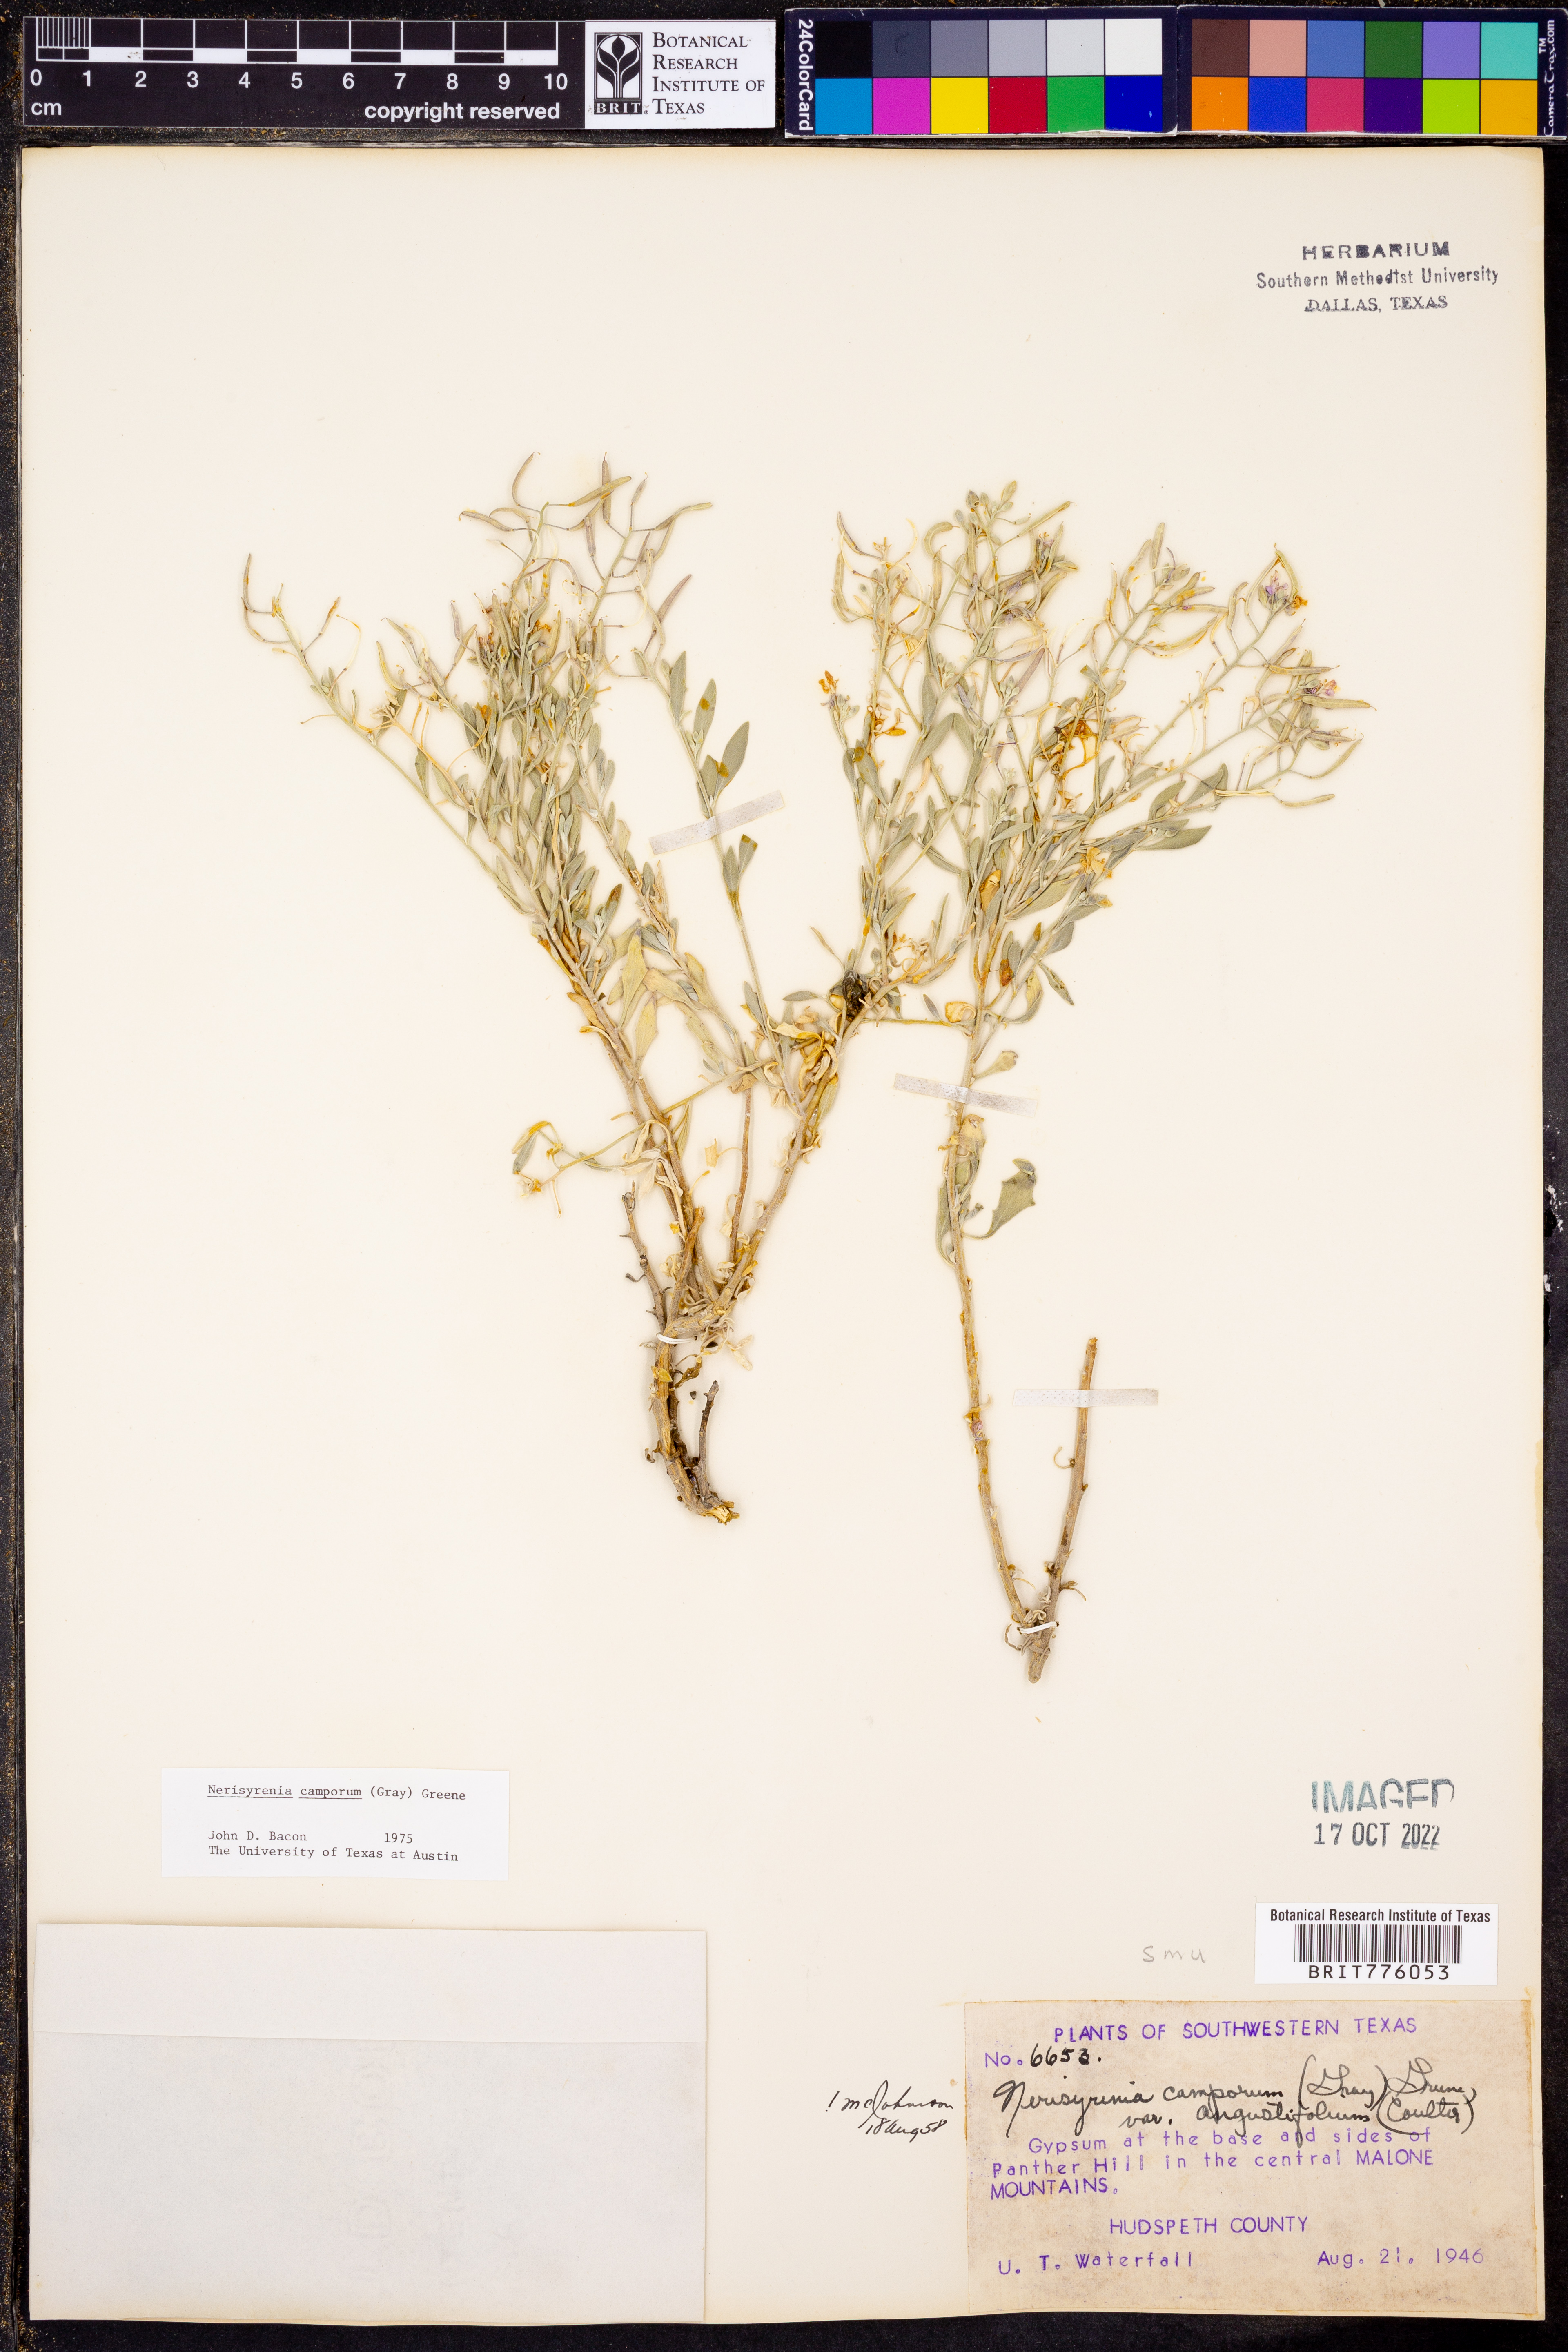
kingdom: Plantae
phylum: Tracheophyta
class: Magnoliopsida
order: Brassicales
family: Brassicaceae
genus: Nerisyrenia
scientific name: Nerisyrenia camporum
